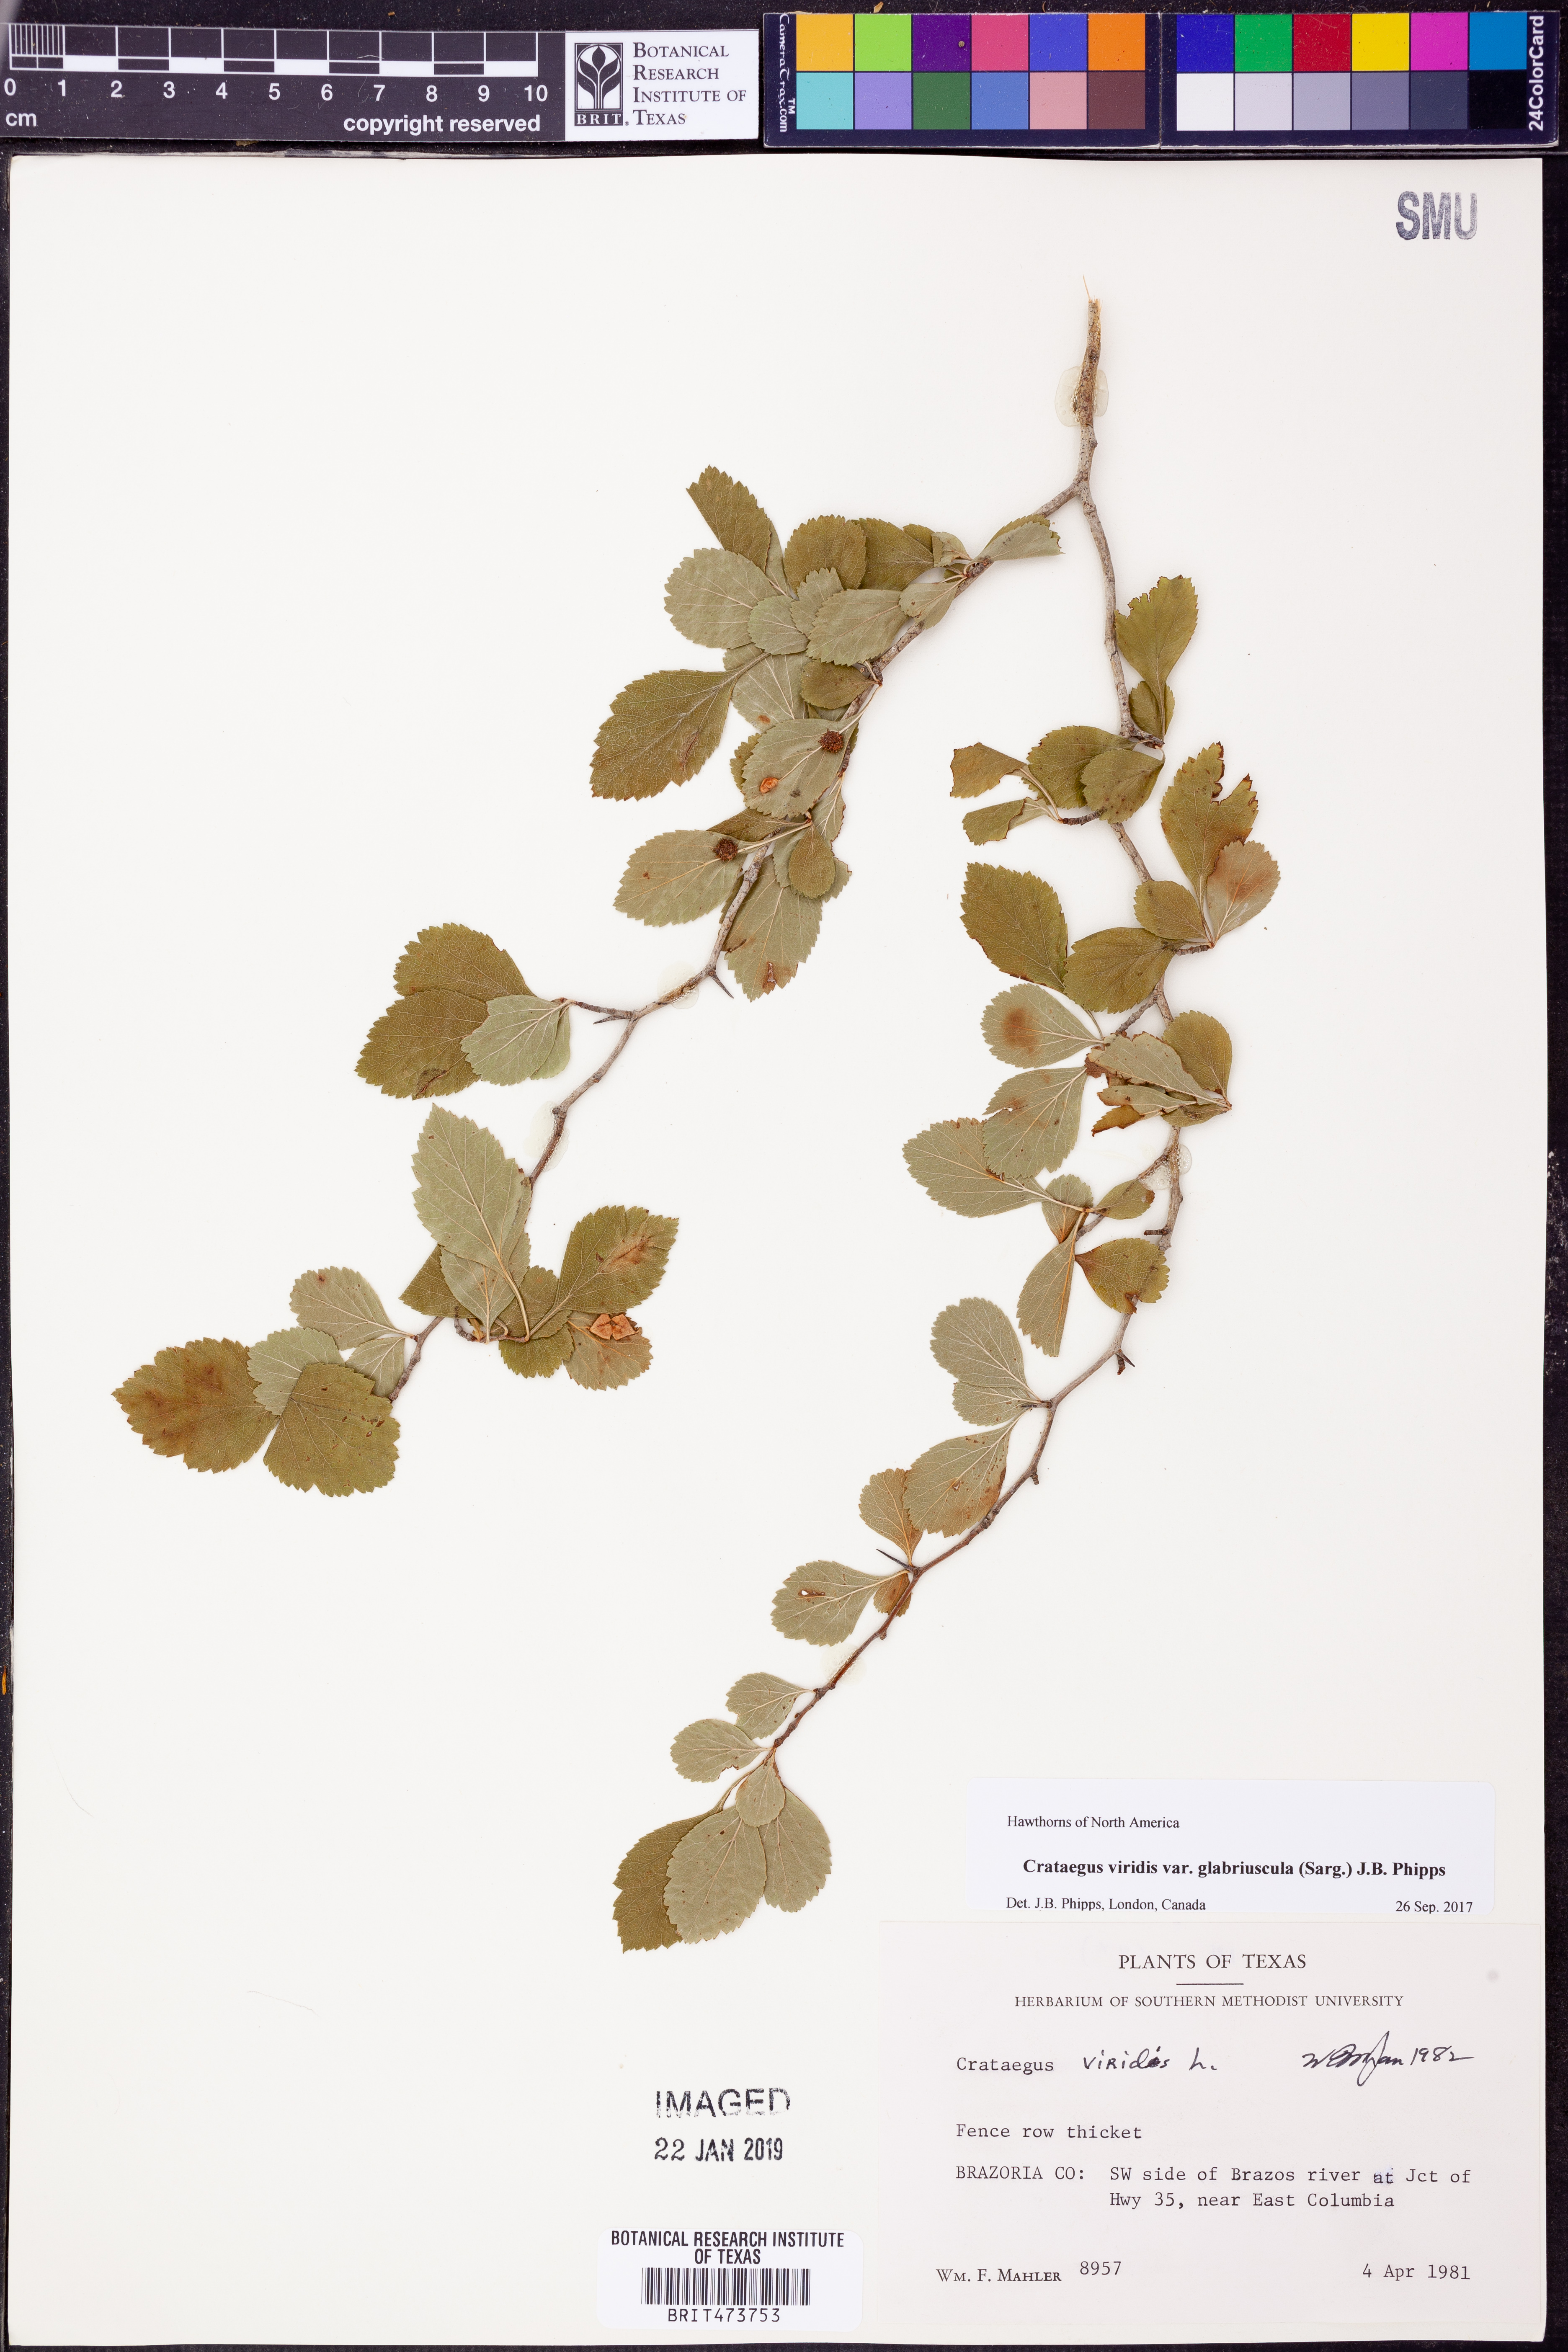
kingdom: Plantae
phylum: Tracheophyta
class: Magnoliopsida
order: Rosales
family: Rosaceae
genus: Crataegus
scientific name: Crataegus viridis
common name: Southernthorn
